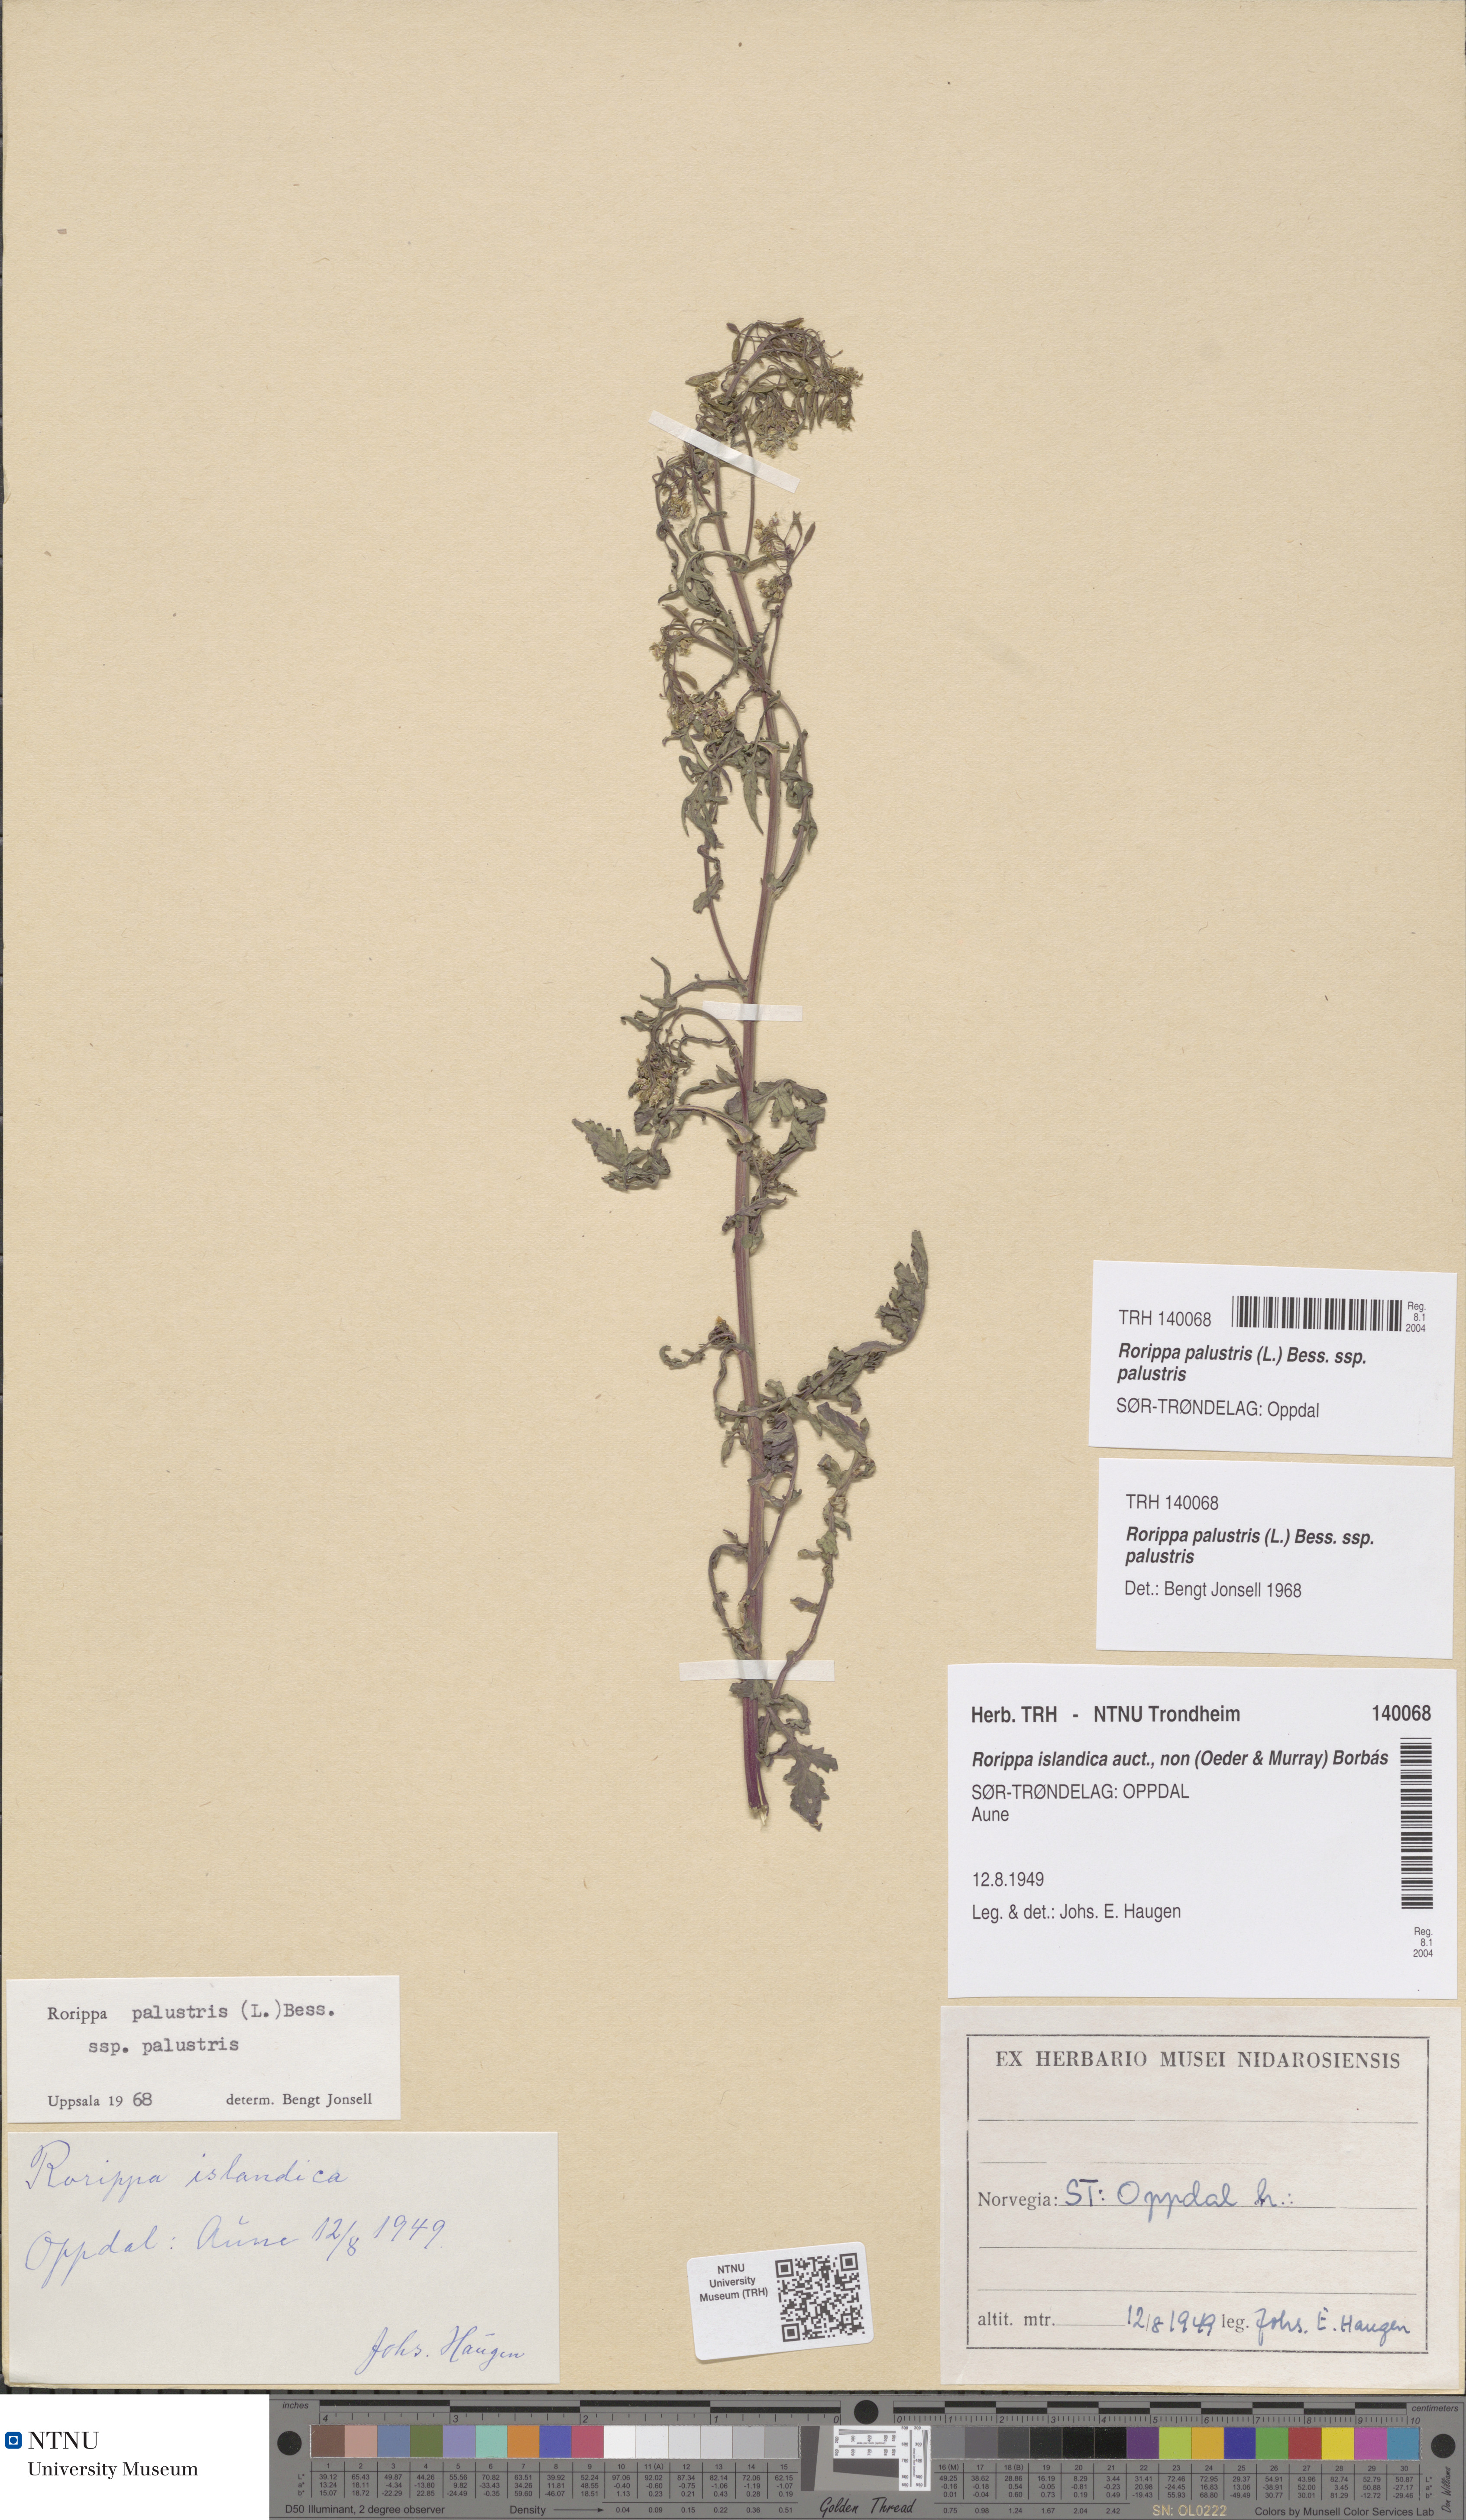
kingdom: Plantae
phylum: Tracheophyta
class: Magnoliopsida
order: Brassicales
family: Brassicaceae
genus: Rorippa
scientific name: Rorippa palustris
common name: Marsh yellow-cress
